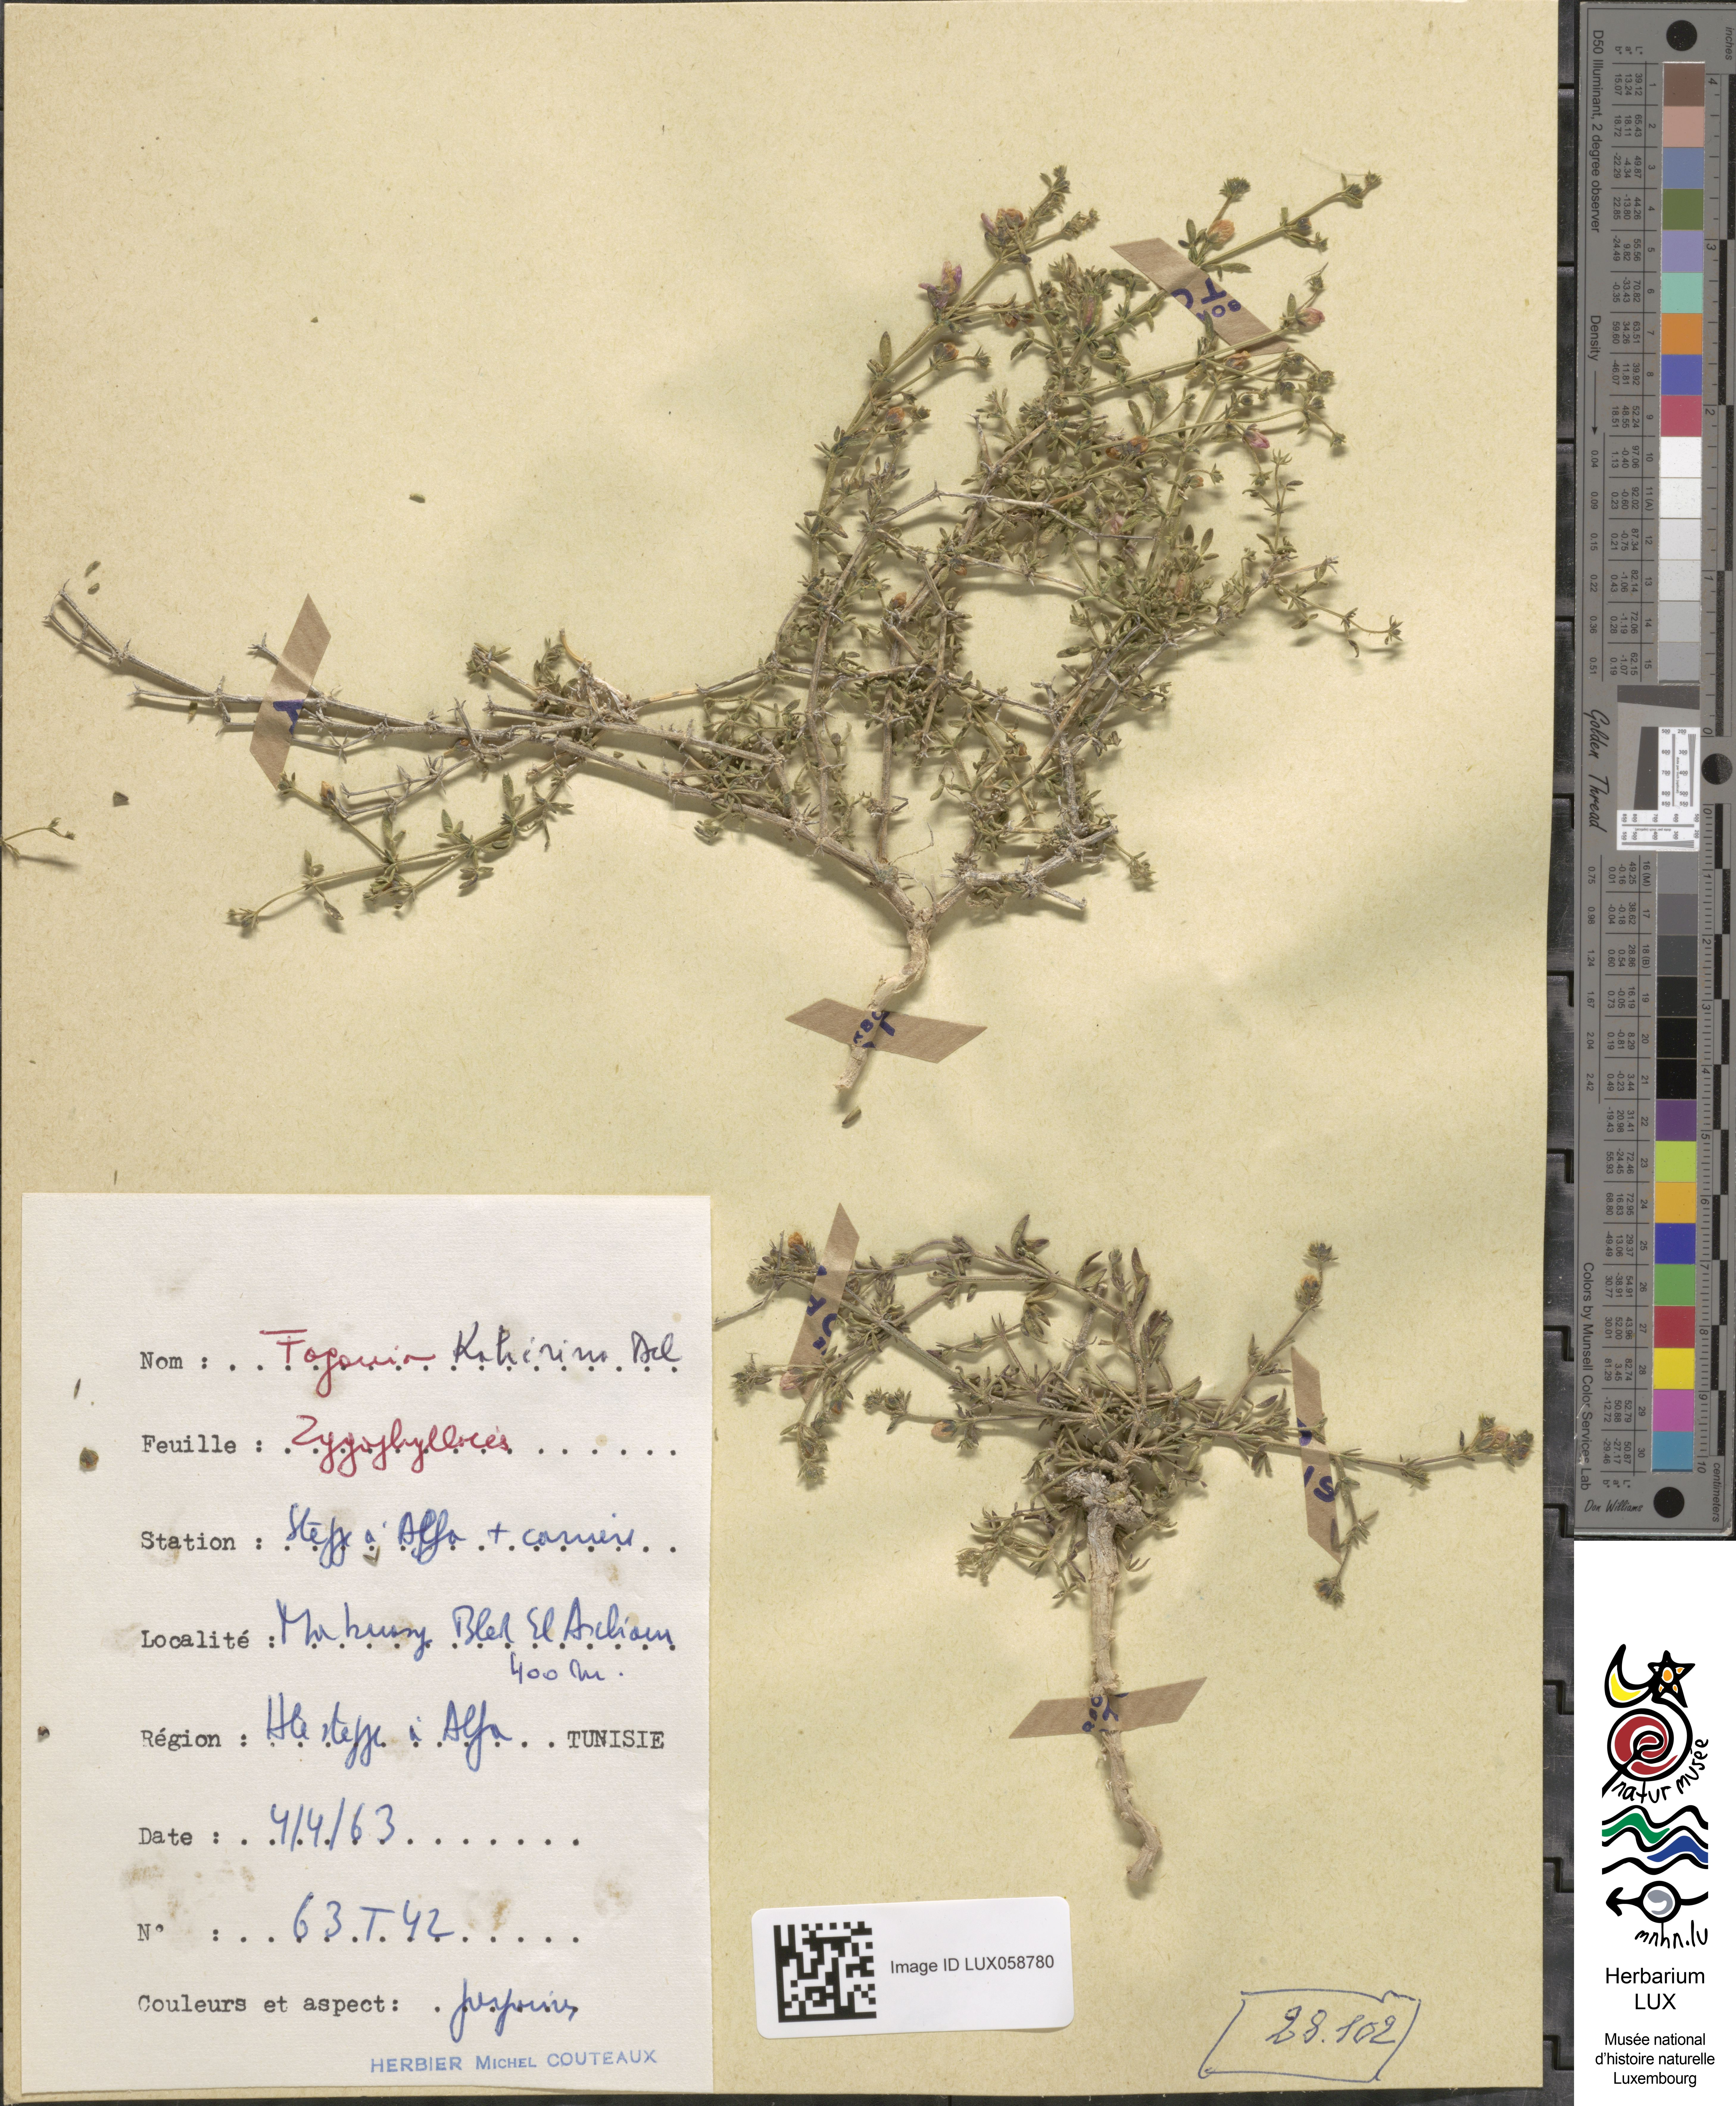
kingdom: Plantae
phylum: Tracheophyta
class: Magnoliopsida
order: Zygophyllales
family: Zygophyllaceae
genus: Fagonia
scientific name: Fagonia scabra
